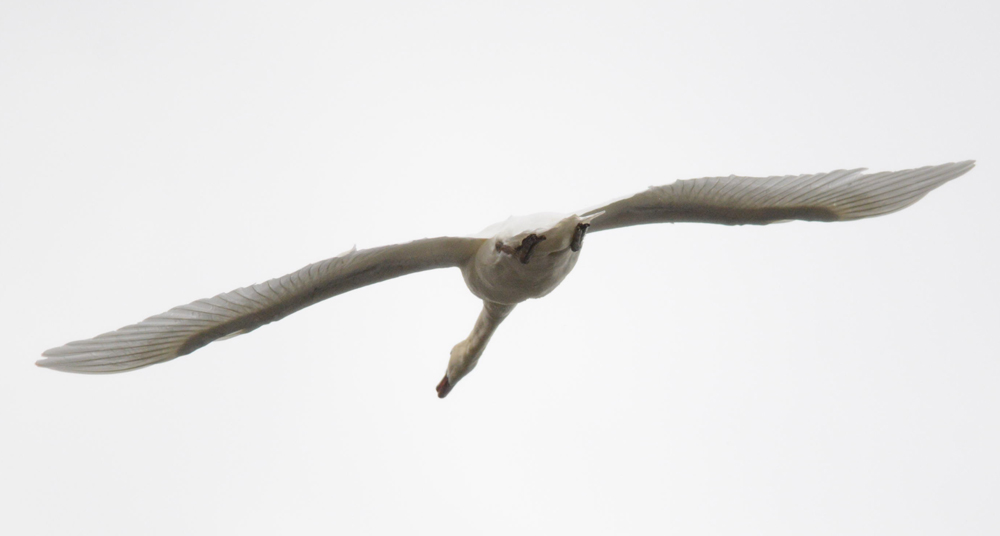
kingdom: Animalia
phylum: Chordata
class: Aves
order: Anseriformes
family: Anatidae
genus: Cygnus
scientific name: Cygnus olor
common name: Mute swan
